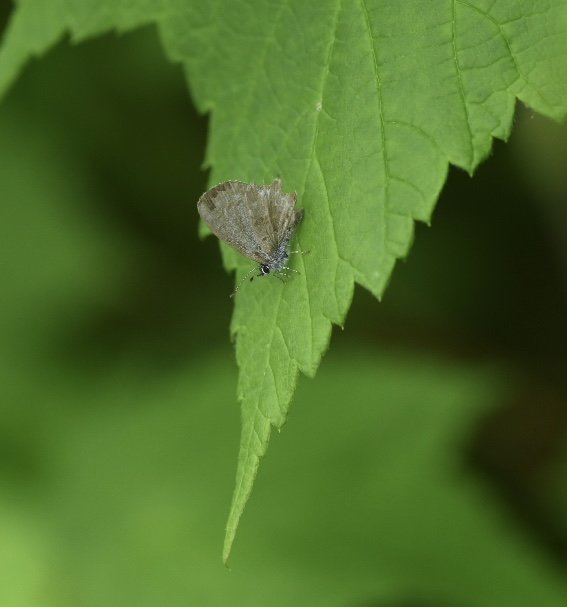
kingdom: Animalia
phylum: Arthropoda
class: Insecta
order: Lepidoptera
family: Lycaenidae
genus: Celastrina
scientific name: Celastrina lucia
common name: Northern Spring Azure
